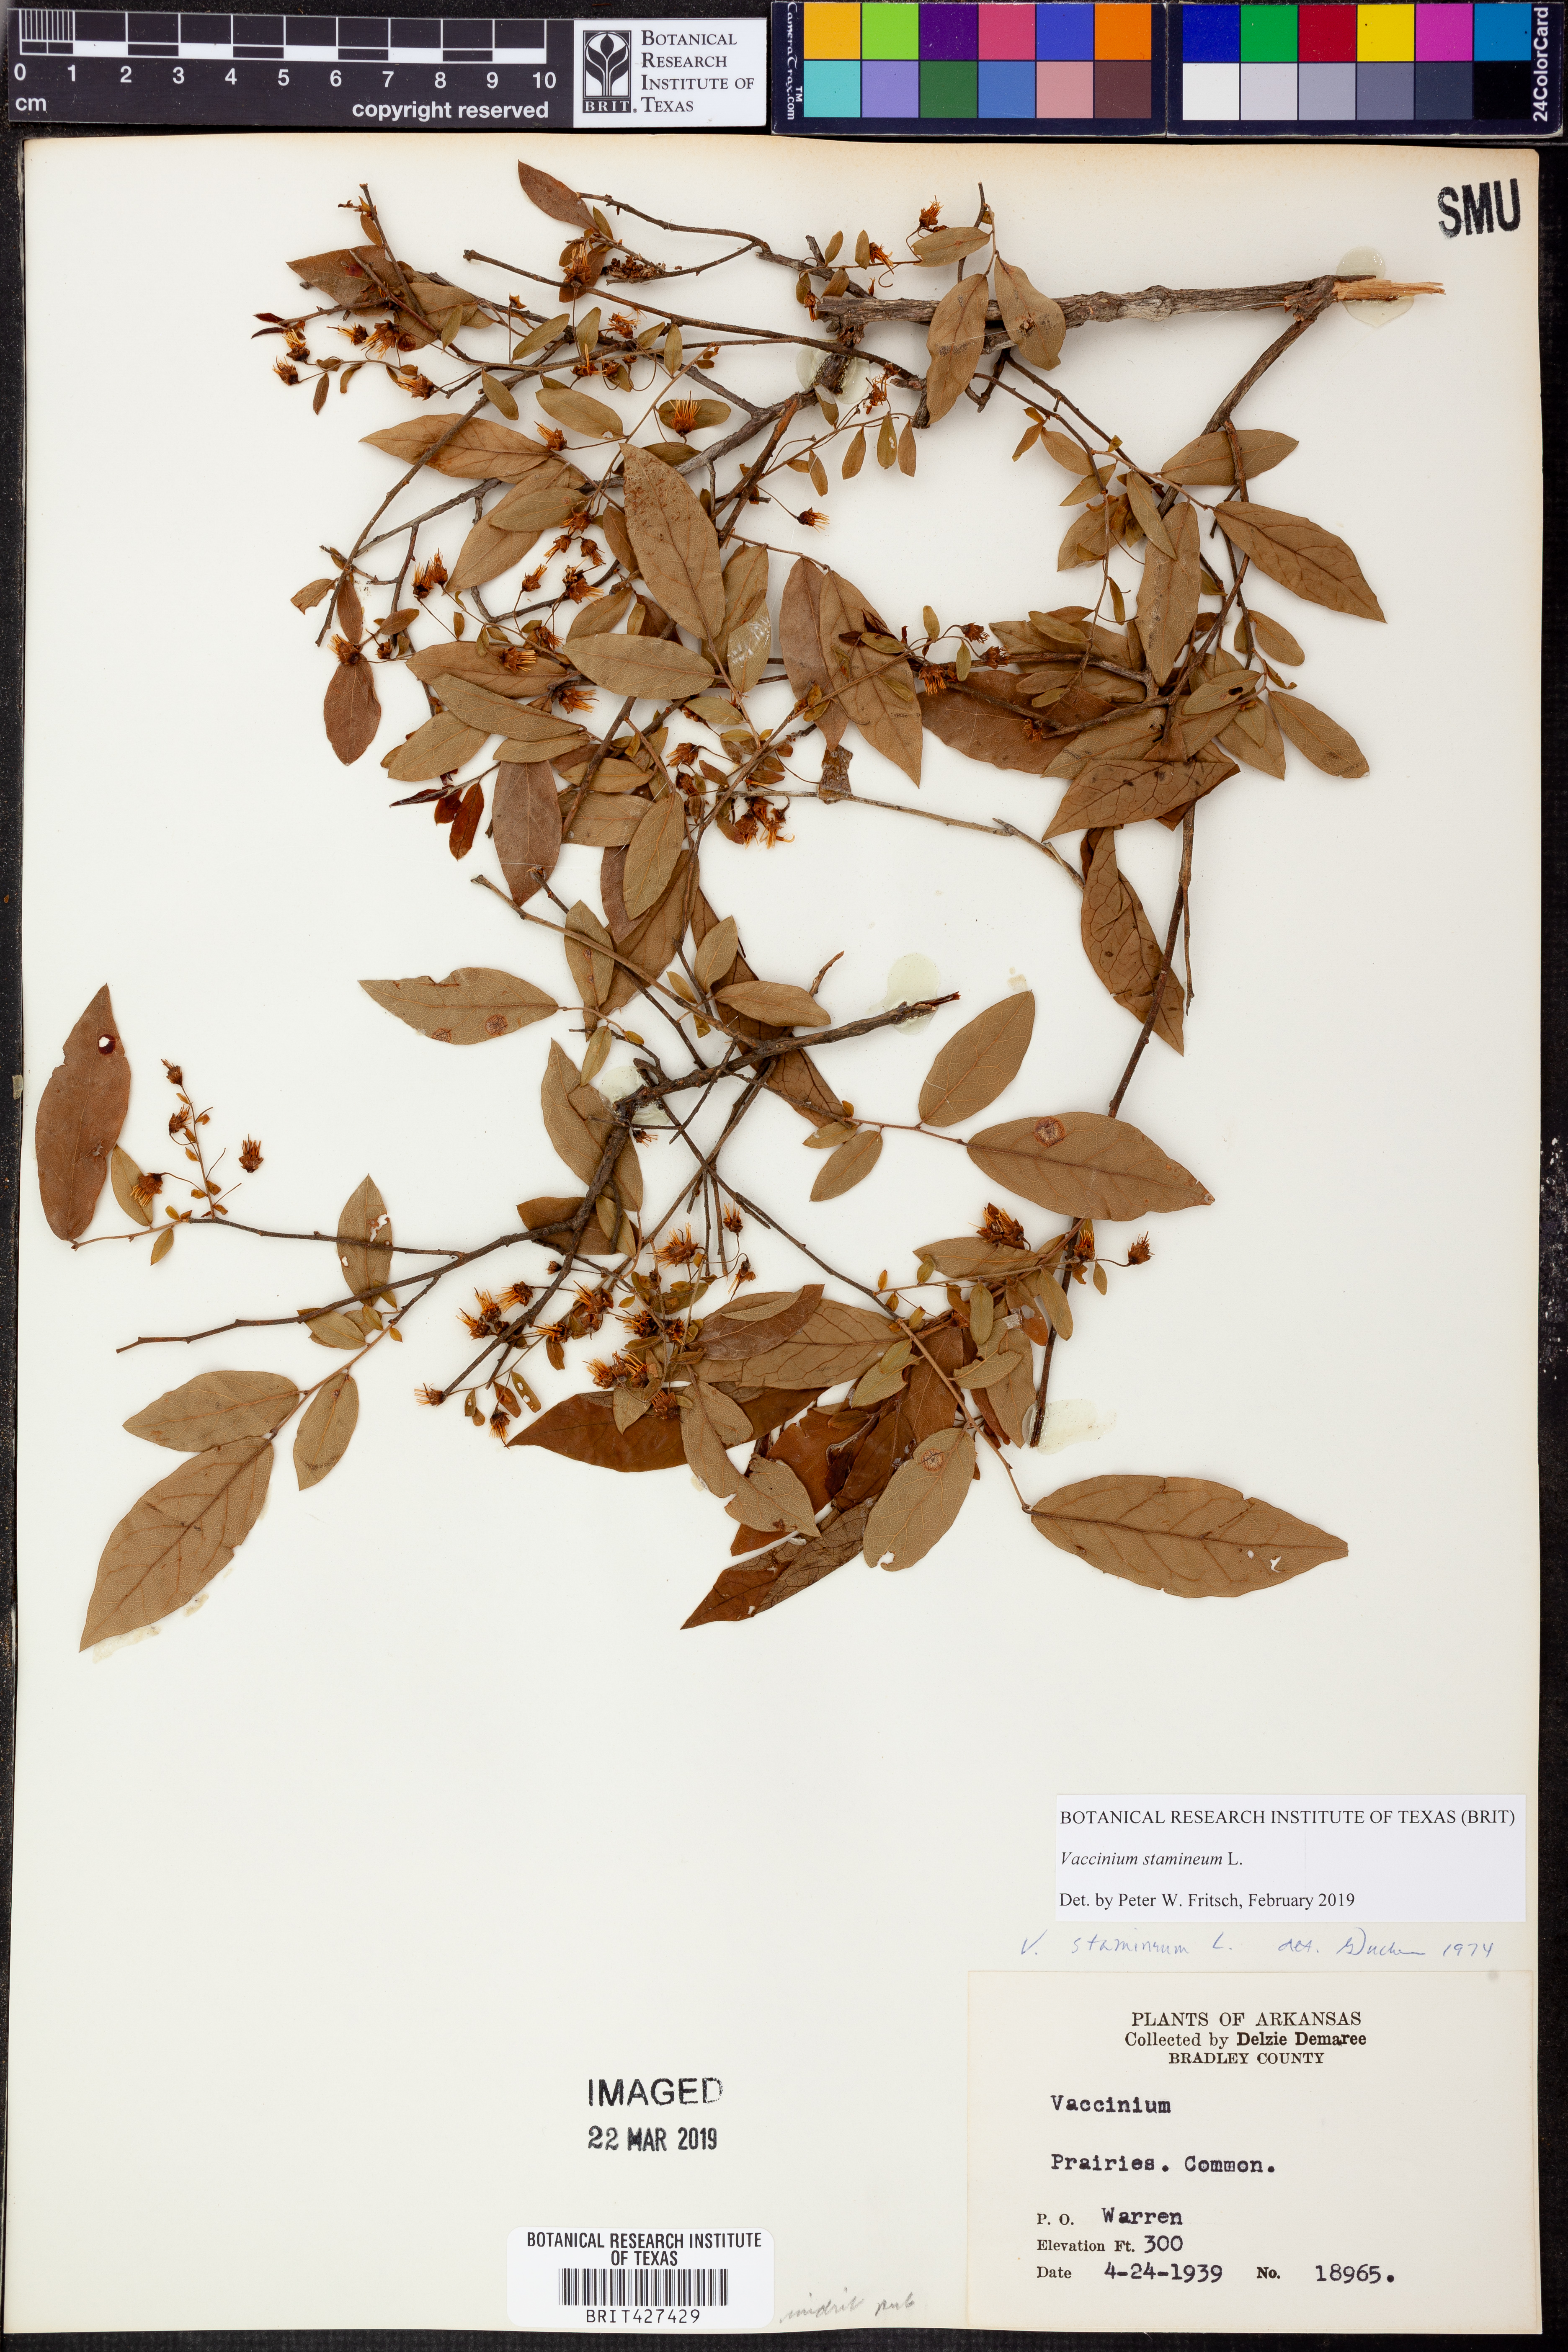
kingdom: Plantae
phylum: Tracheophyta
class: Magnoliopsida
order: Ericales
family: Ericaceae
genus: Vaccinium
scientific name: Vaccinium stamineum
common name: Deerberry
